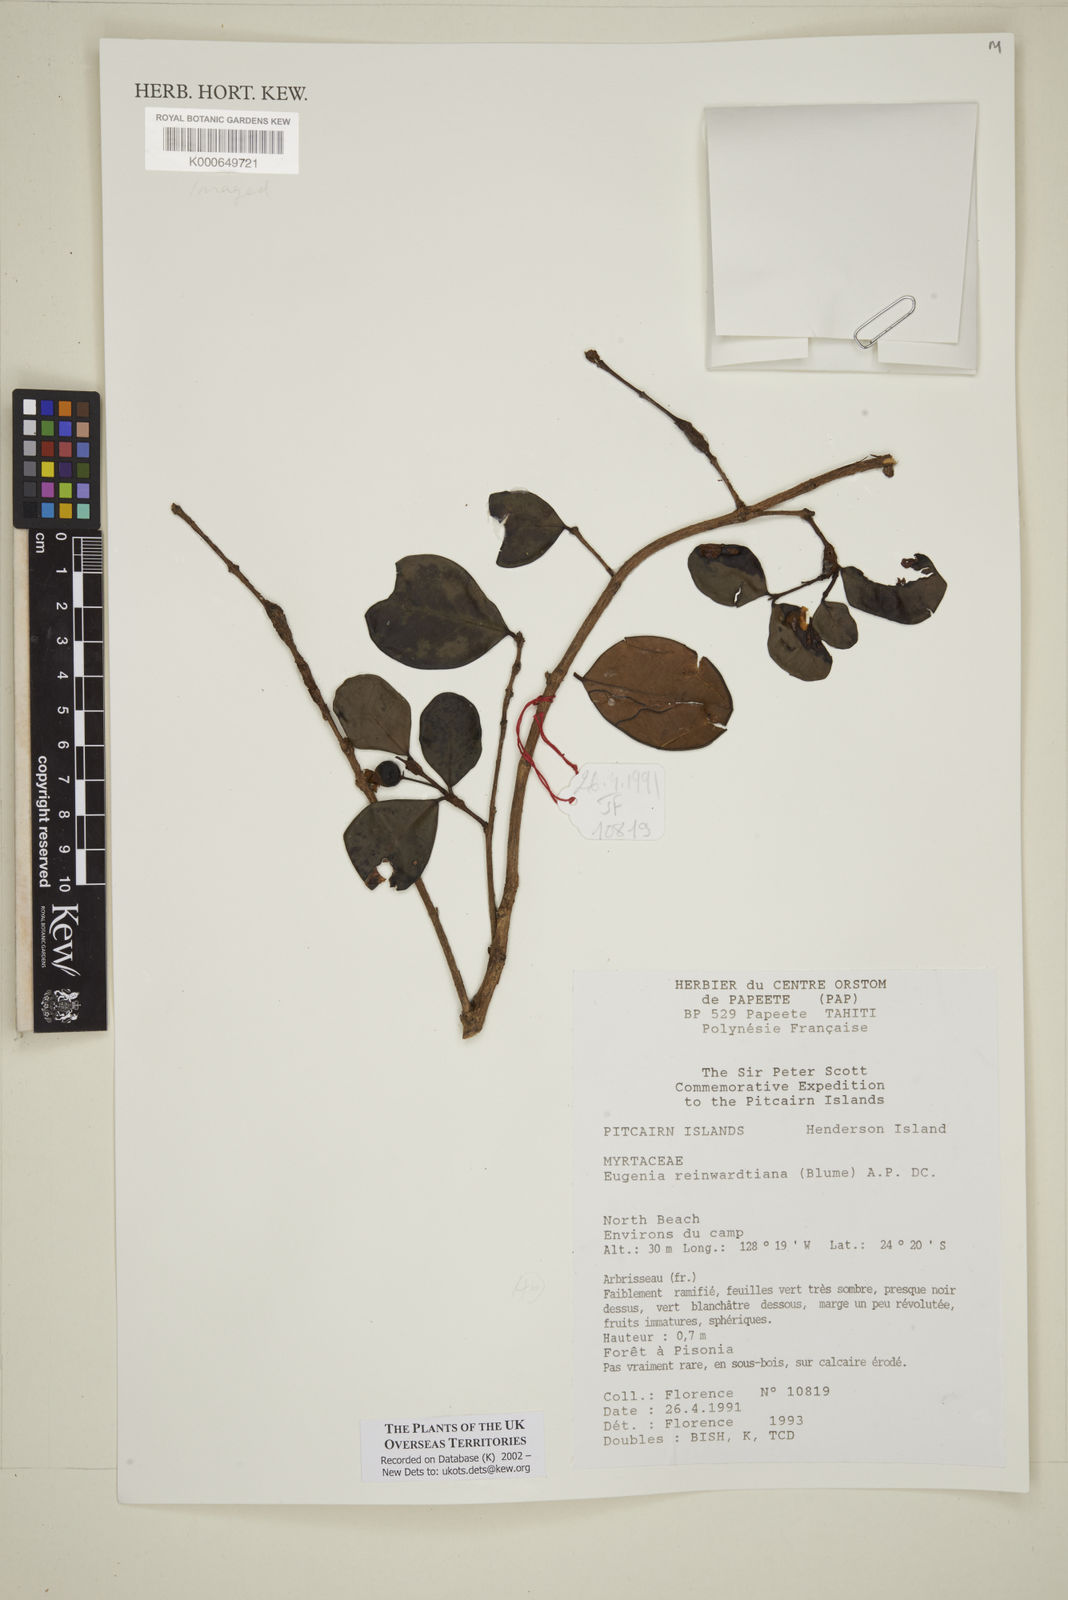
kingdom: Plantae
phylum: Tracheophyta
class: Magnoliopsida
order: Myrtales
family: Myrtaceae
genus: Eugenia
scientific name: Eugenia uniflora
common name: Surinam cherry
